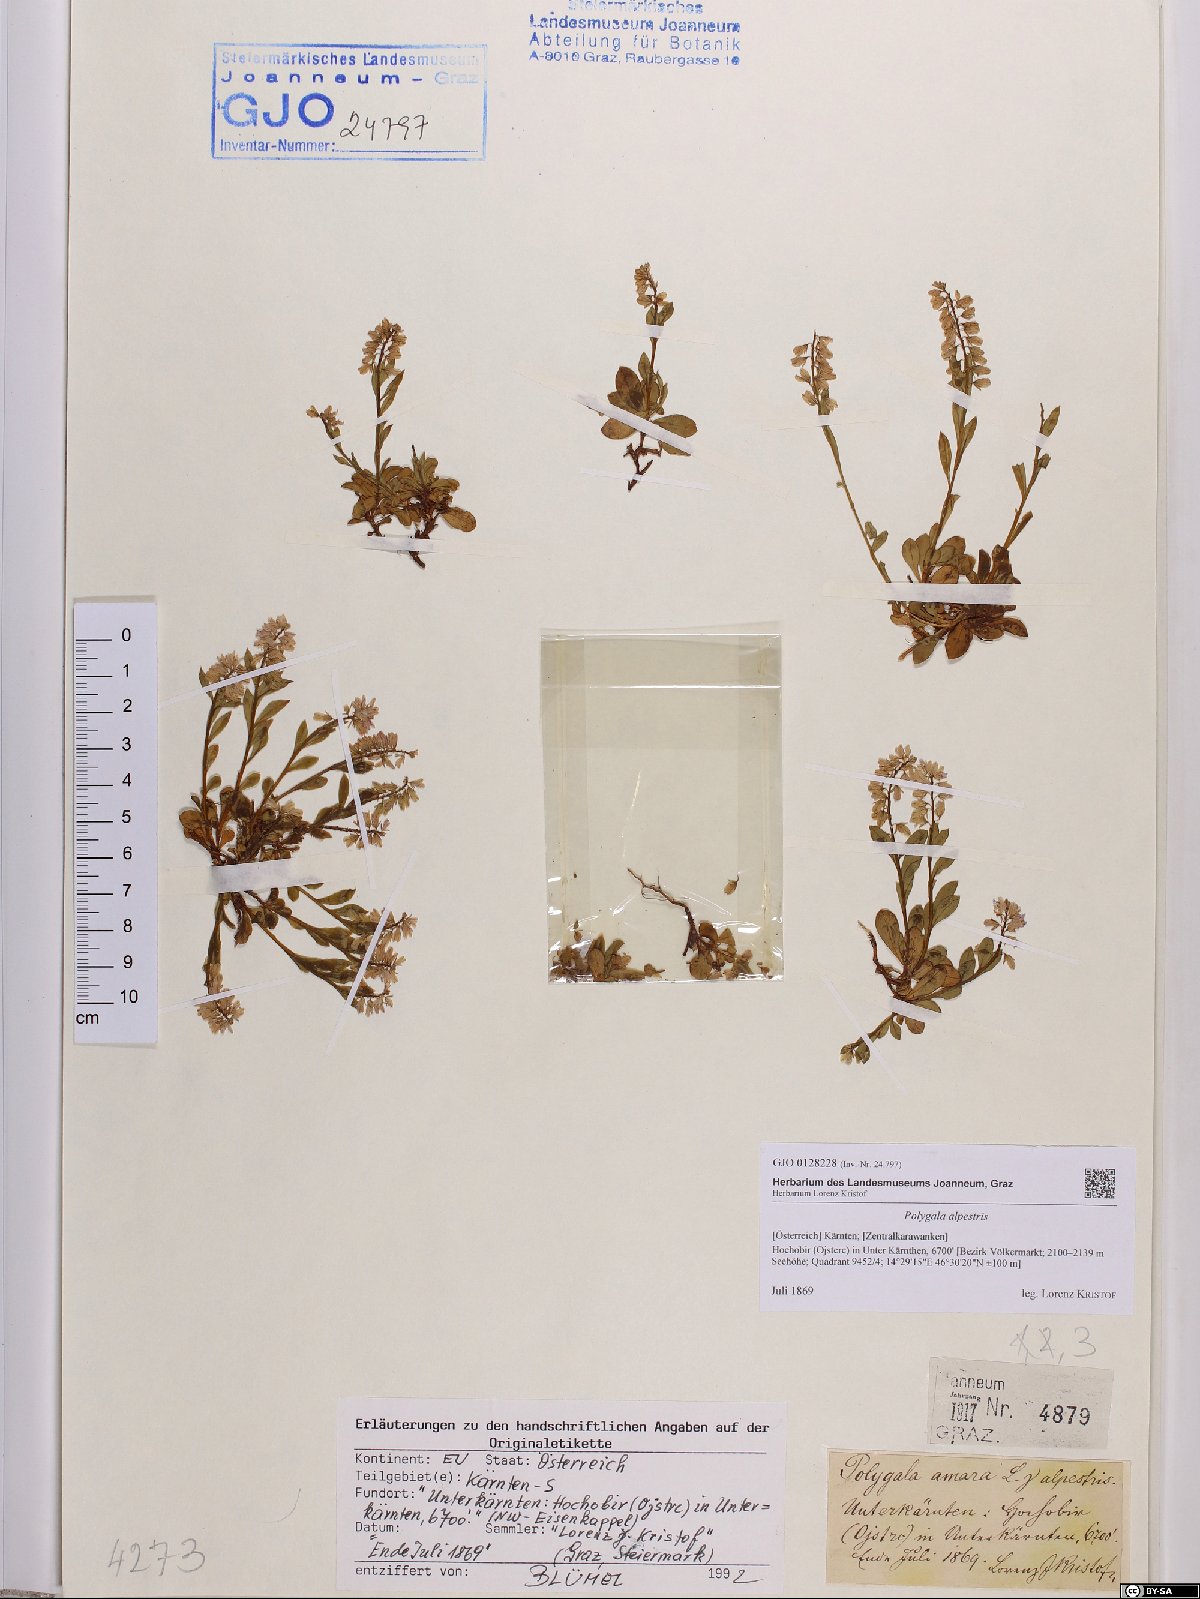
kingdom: Plantae
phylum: Tracheophyta
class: Magnoliopsida
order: Fabales
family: Polygalaceae
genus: Polygala
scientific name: Polygala alpestris
